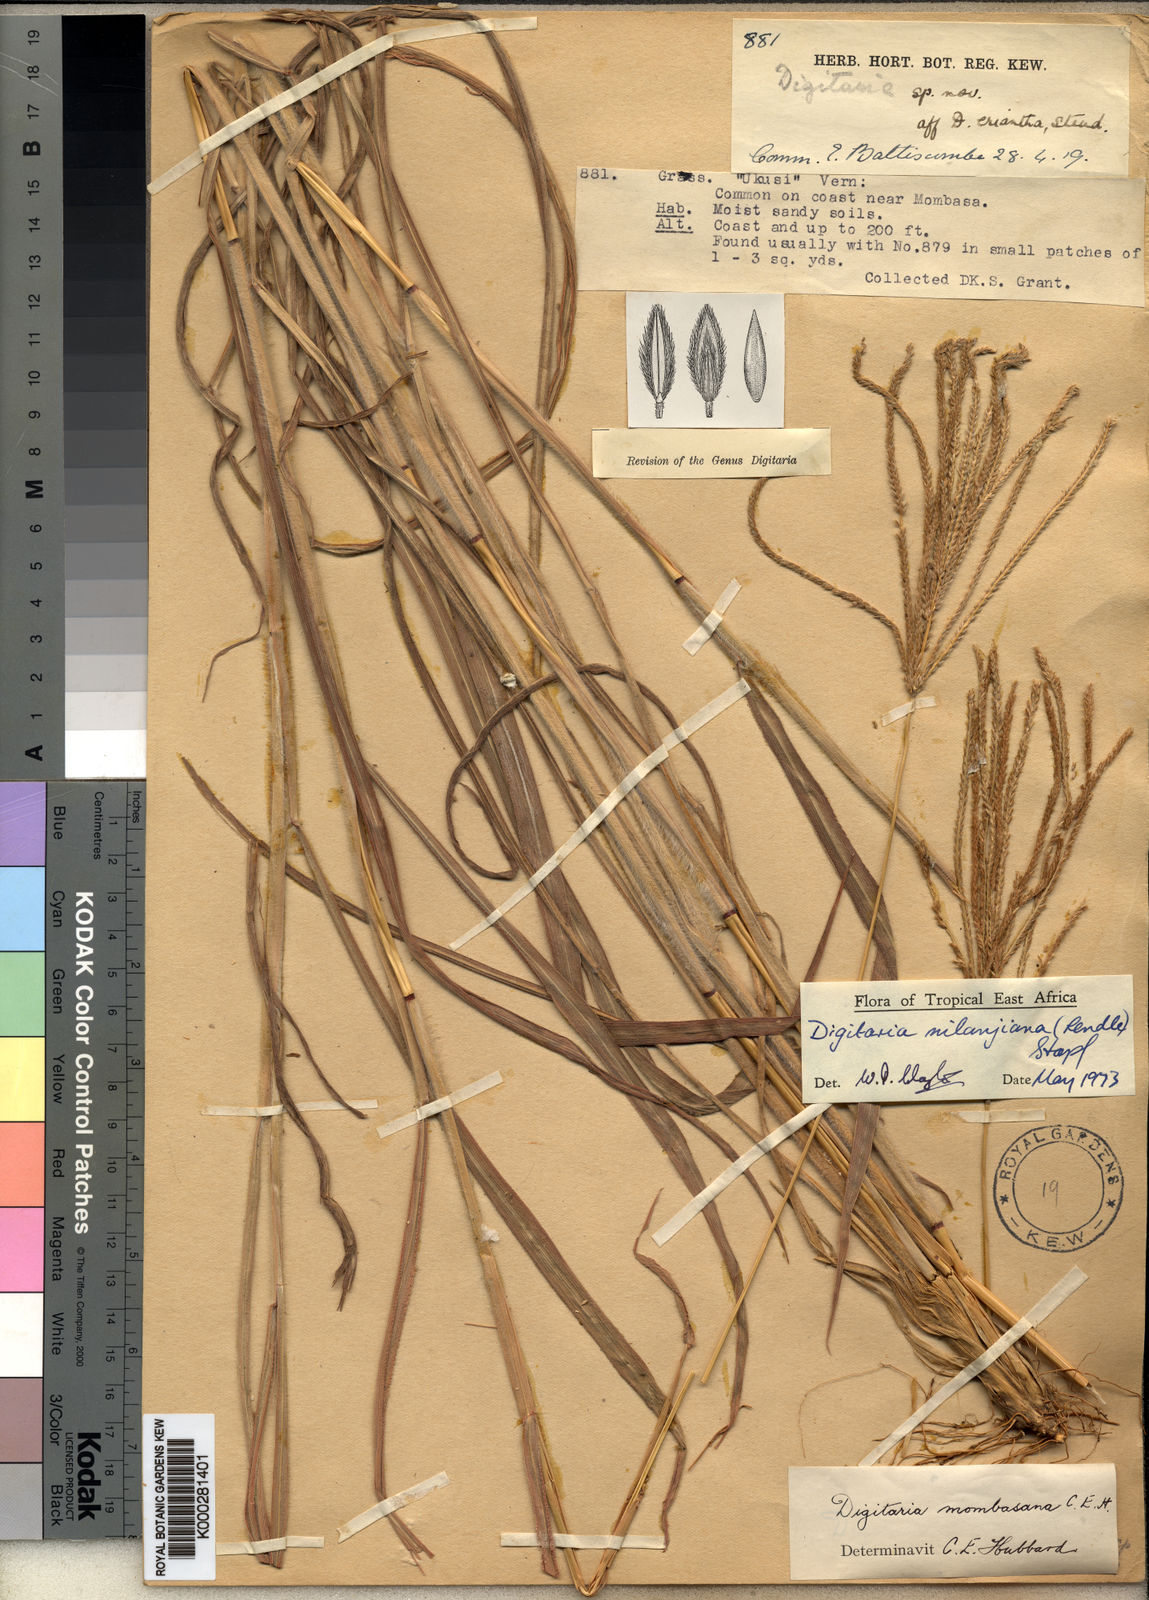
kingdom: Plantae
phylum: Tracheophyta
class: Liliopsida
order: Poales
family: Poaceae
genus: Digitaria
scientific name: Digitaria milanjiana
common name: Madagascar crabgrass
